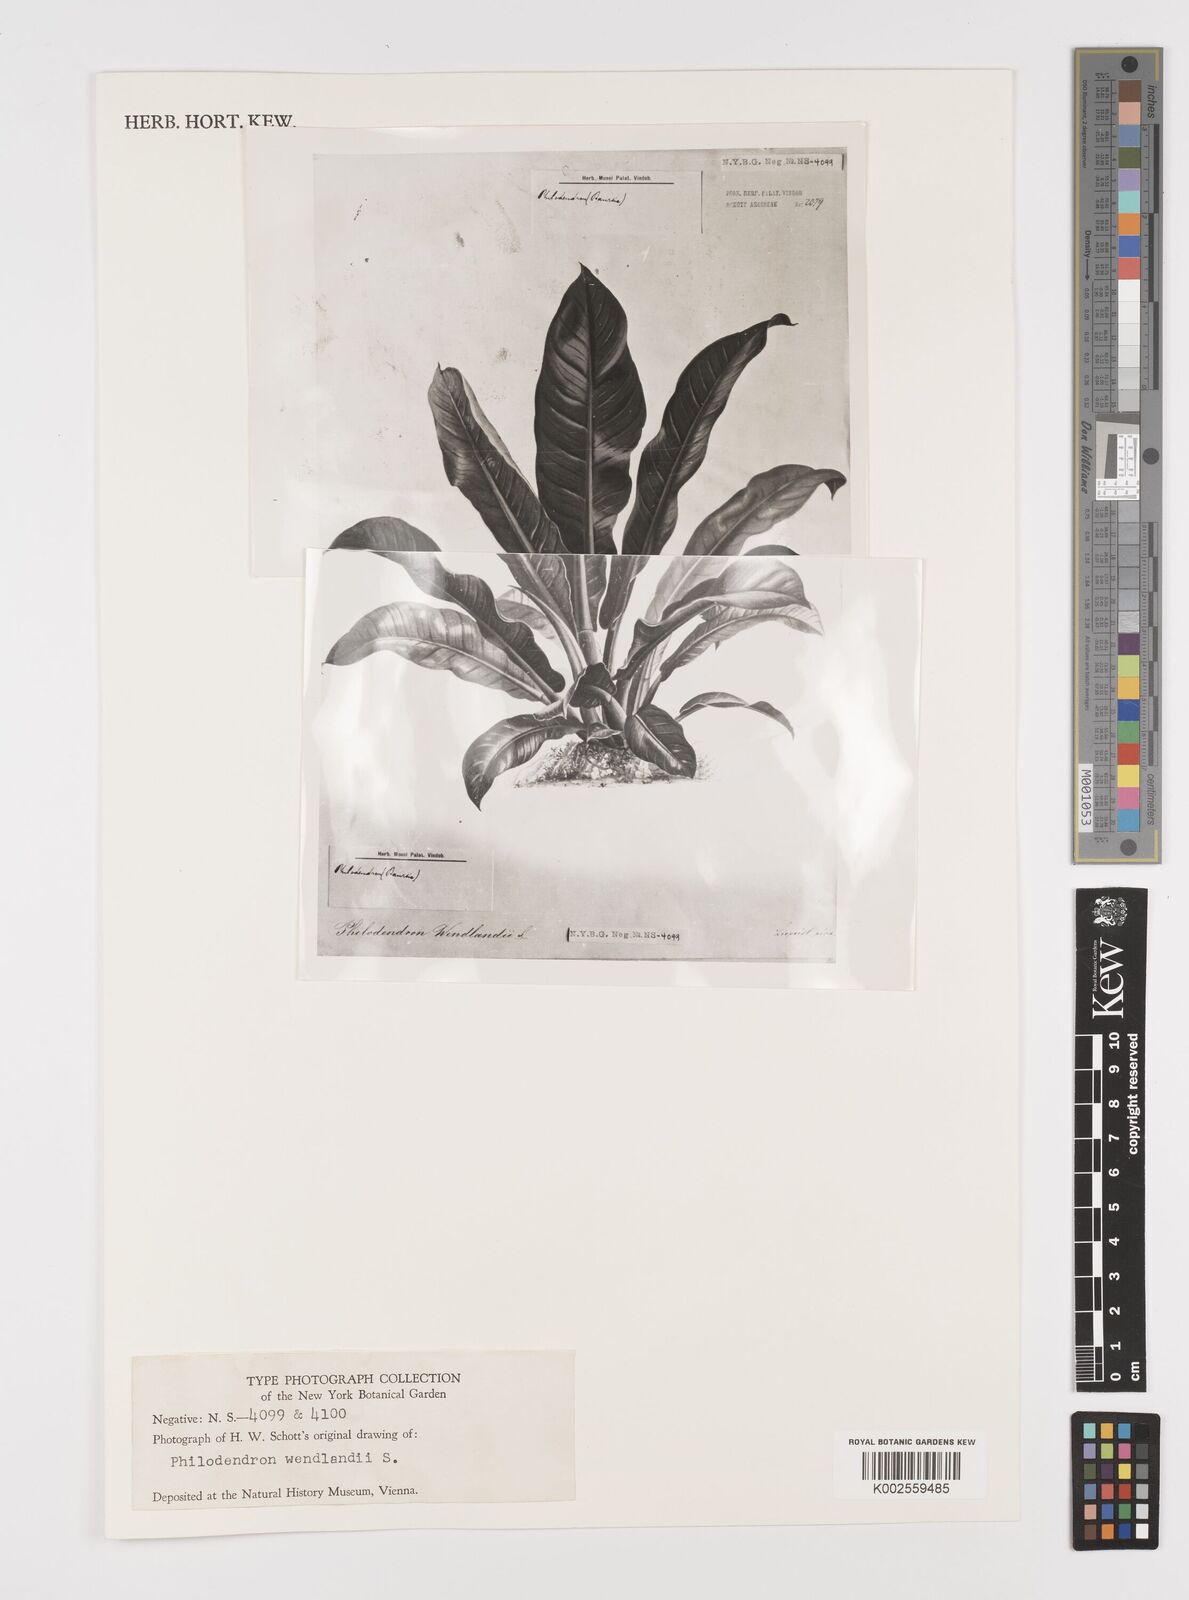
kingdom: Plantae
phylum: Tracheophyta
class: Liliopsida
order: Alismatales
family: Araceae
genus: Philodendron
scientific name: Philodendron wendlandii
